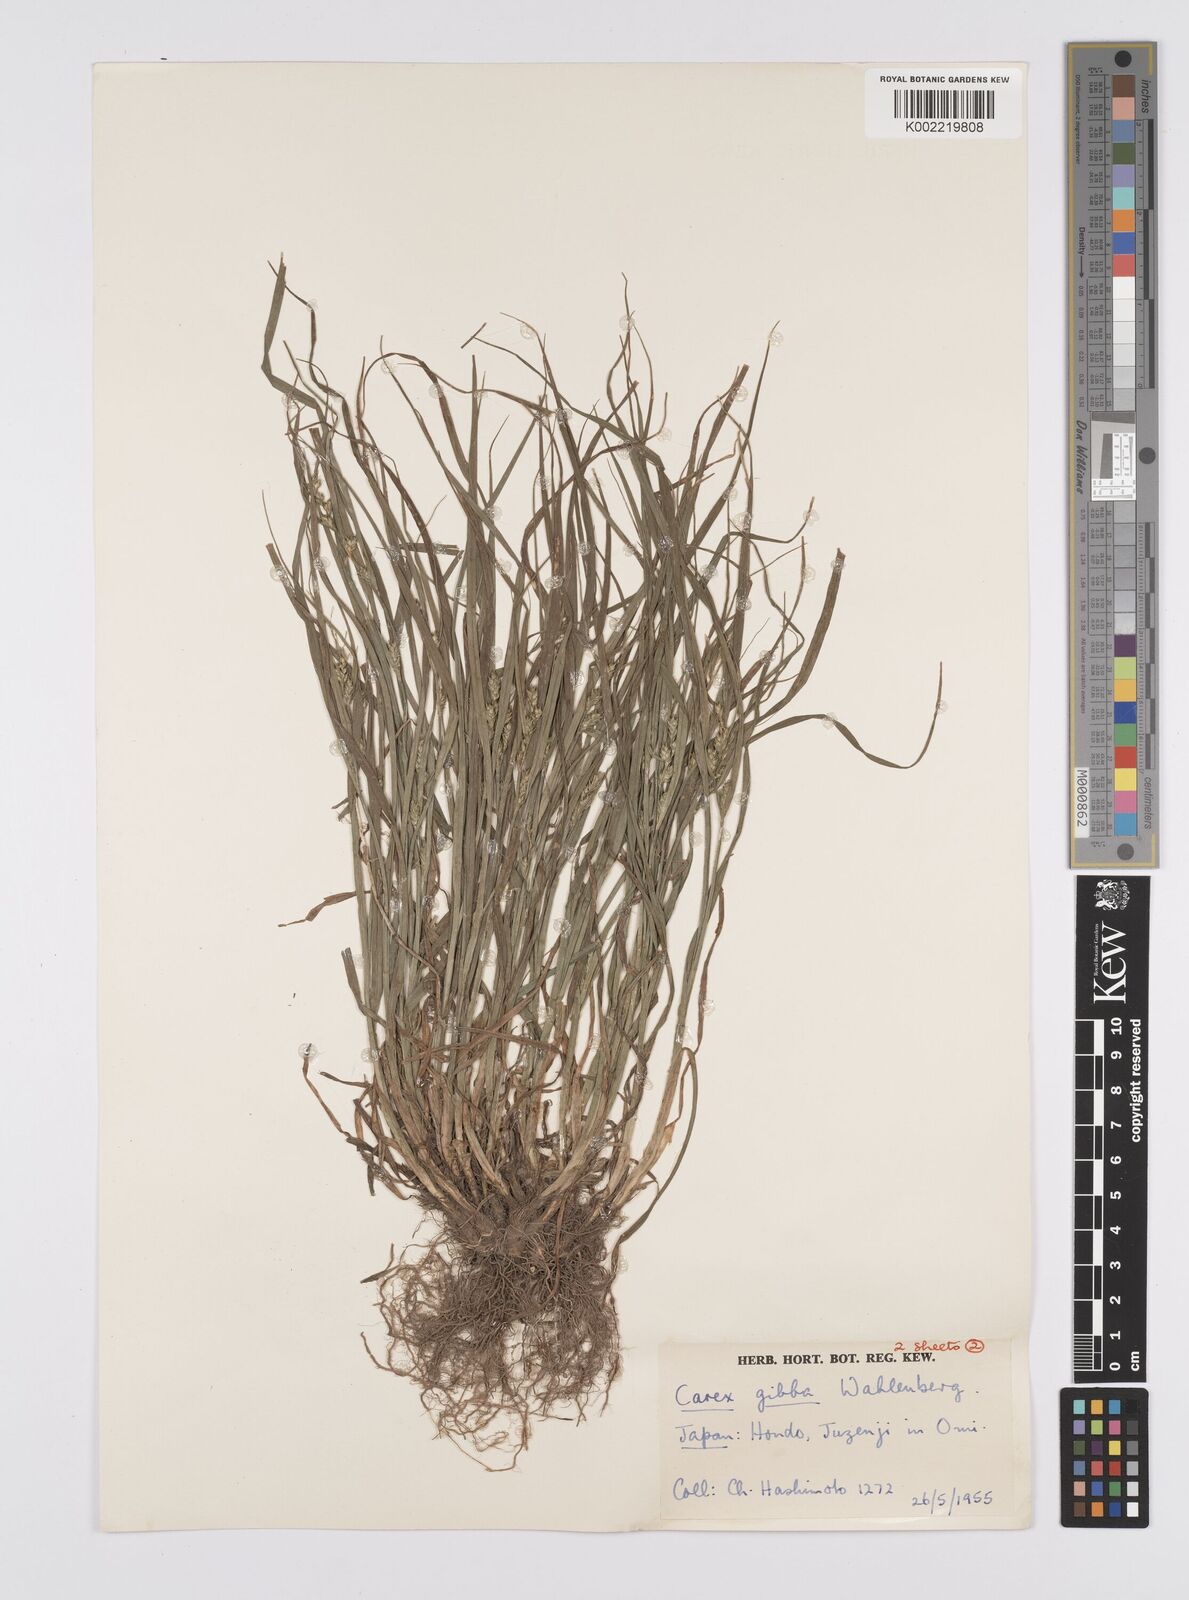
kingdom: Plantae
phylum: Tracheophyta
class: Liliopsida
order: Poales
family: Cyperaceae
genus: Carex
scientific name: Carex gibba
